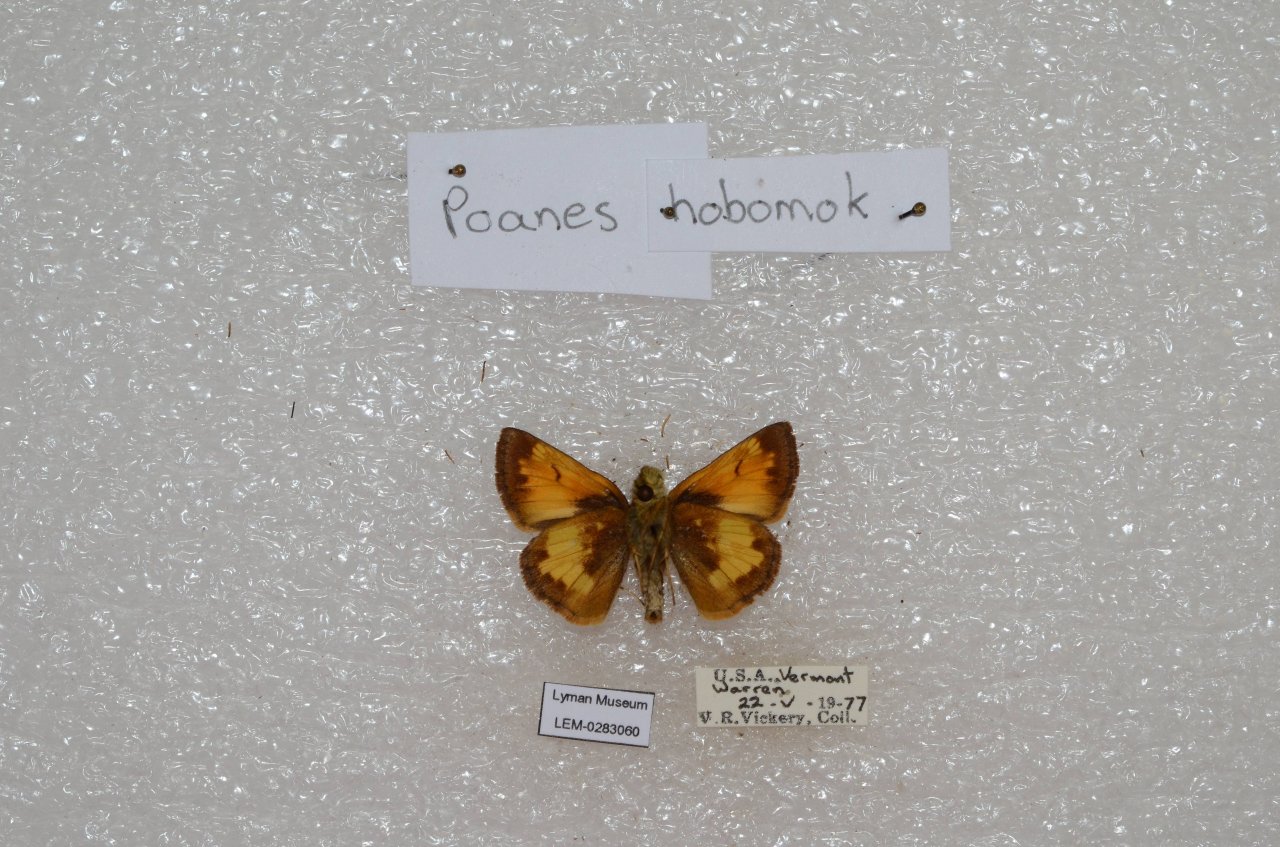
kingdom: Animalia
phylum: Arthropoda
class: Insecta
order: Lepidoptera
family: Hesperiidae
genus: Lon
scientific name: Lon hobomok
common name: Hobomok Skipper
